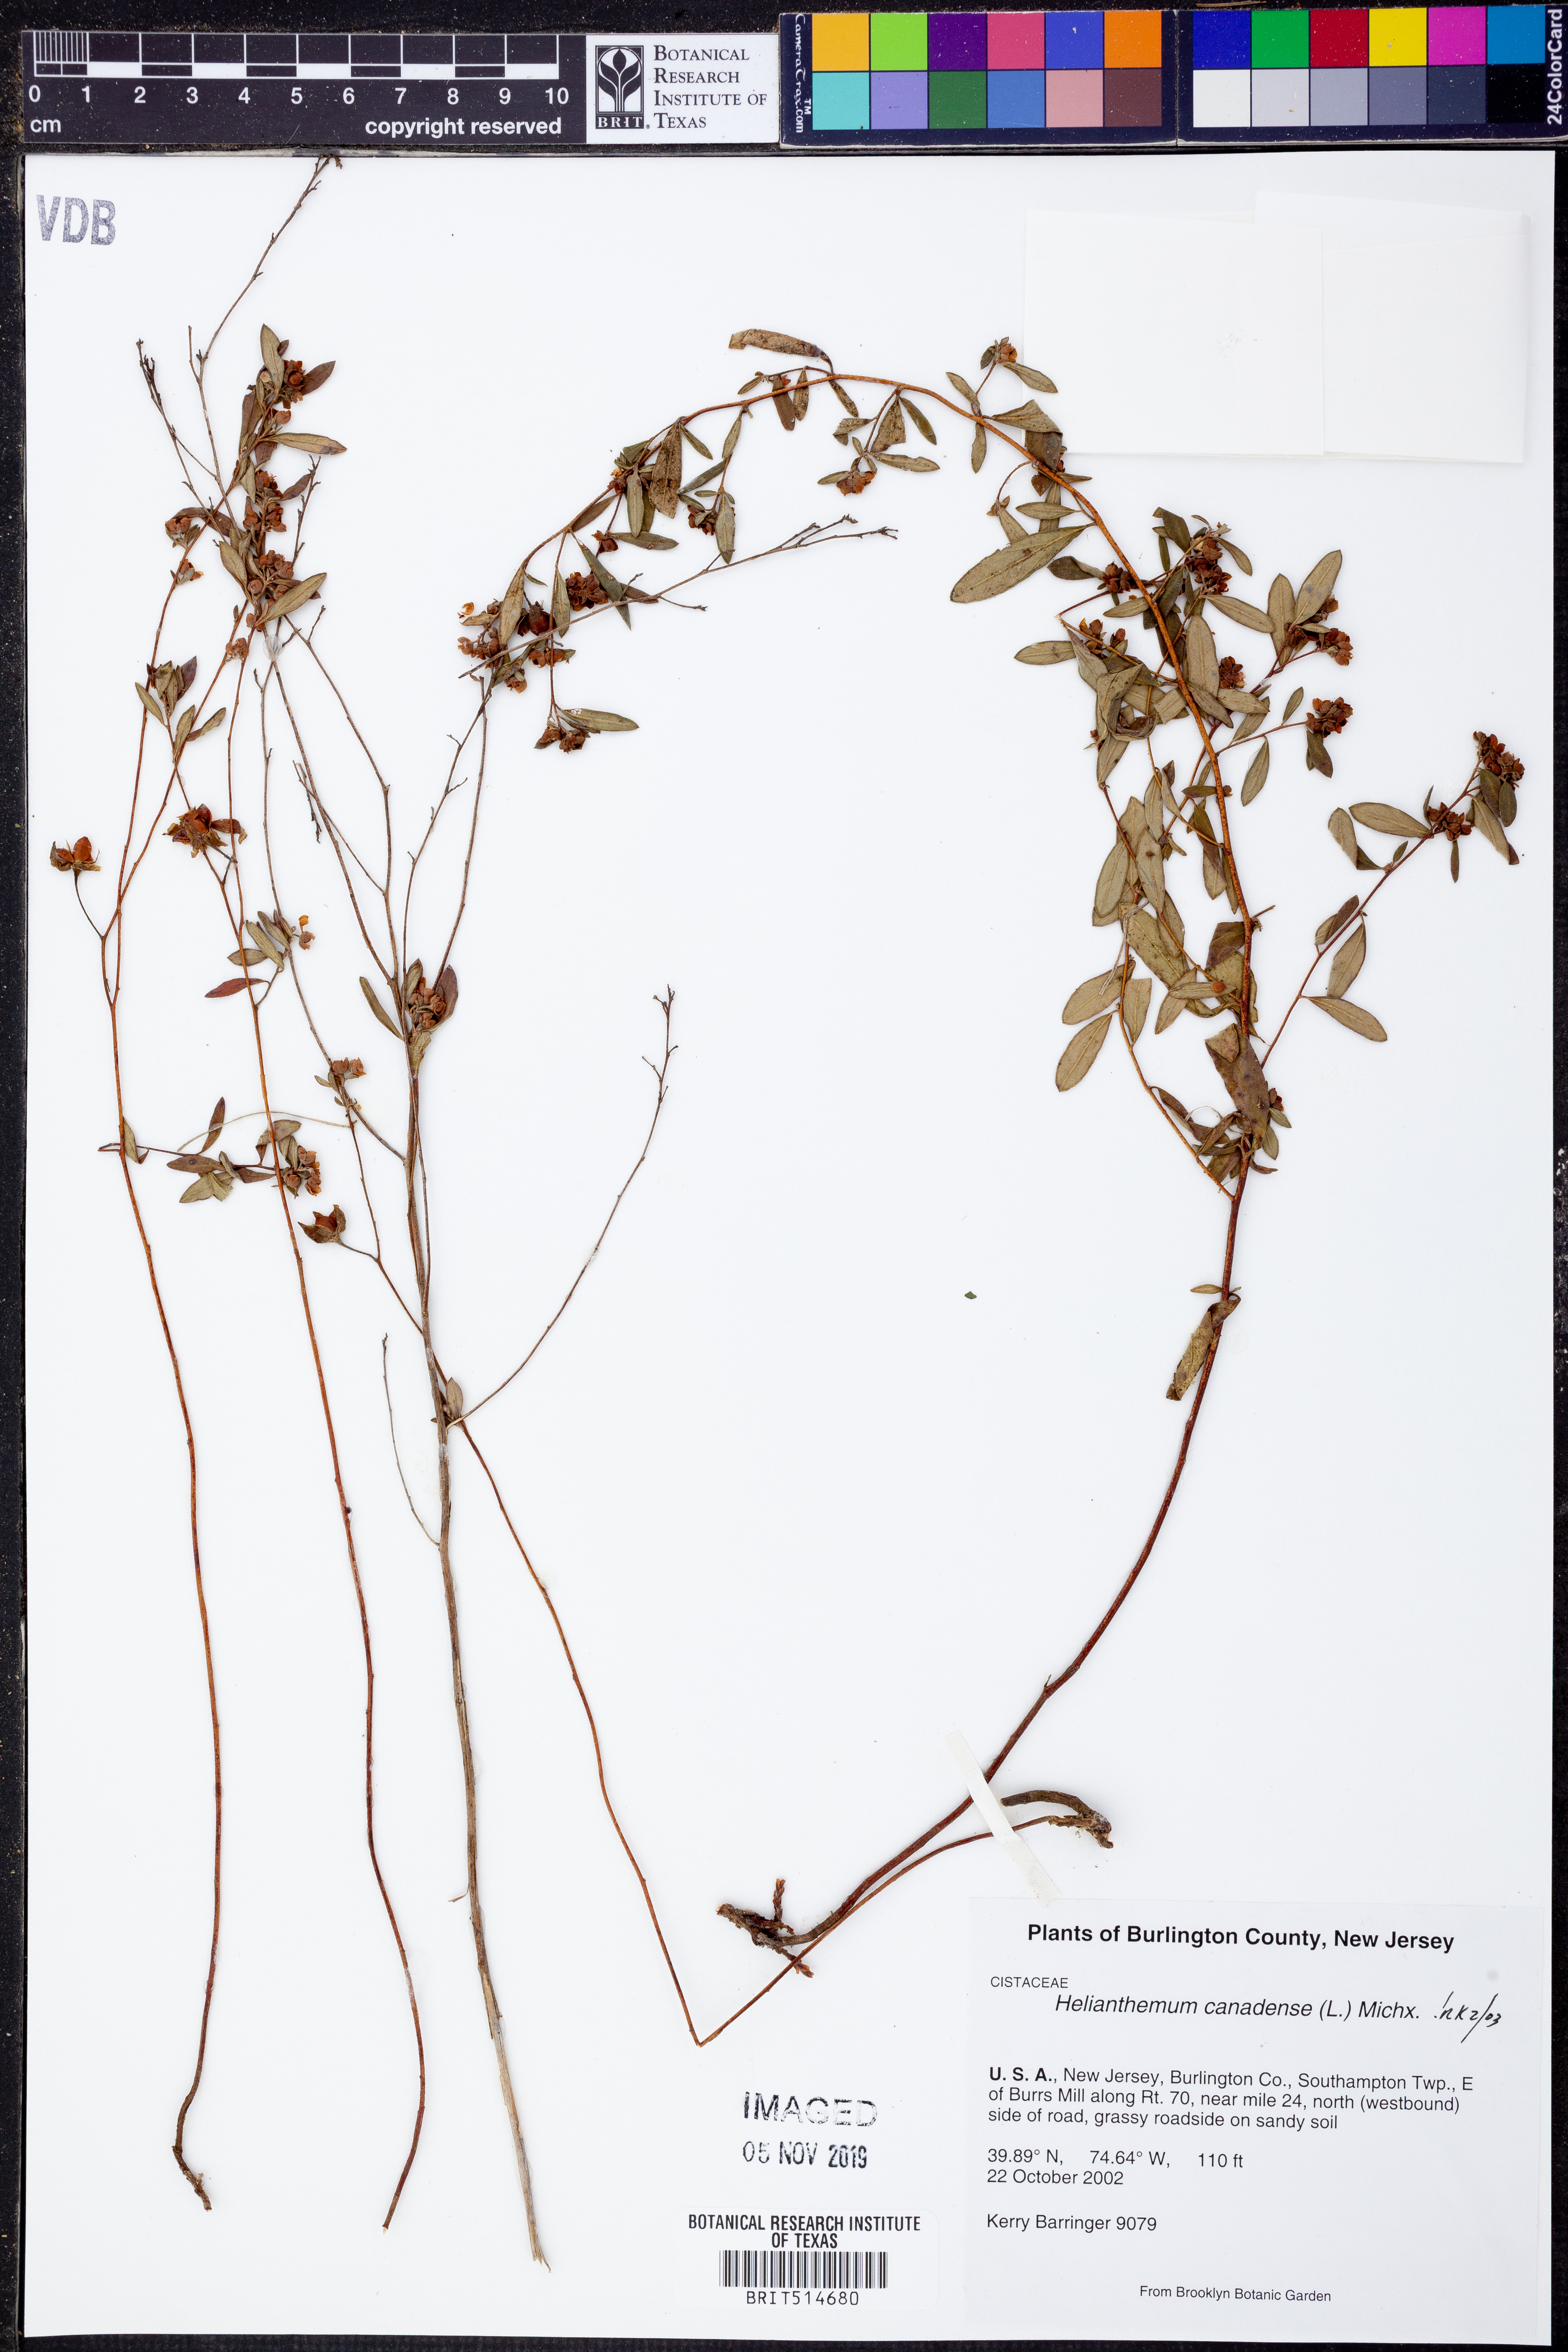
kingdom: Plantae
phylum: Tracheophyta
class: Magnoliopsida
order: Malvales
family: Cistaceae
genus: Crocanthemum
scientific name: Crocanthemum canadense
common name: Canada frostweed
